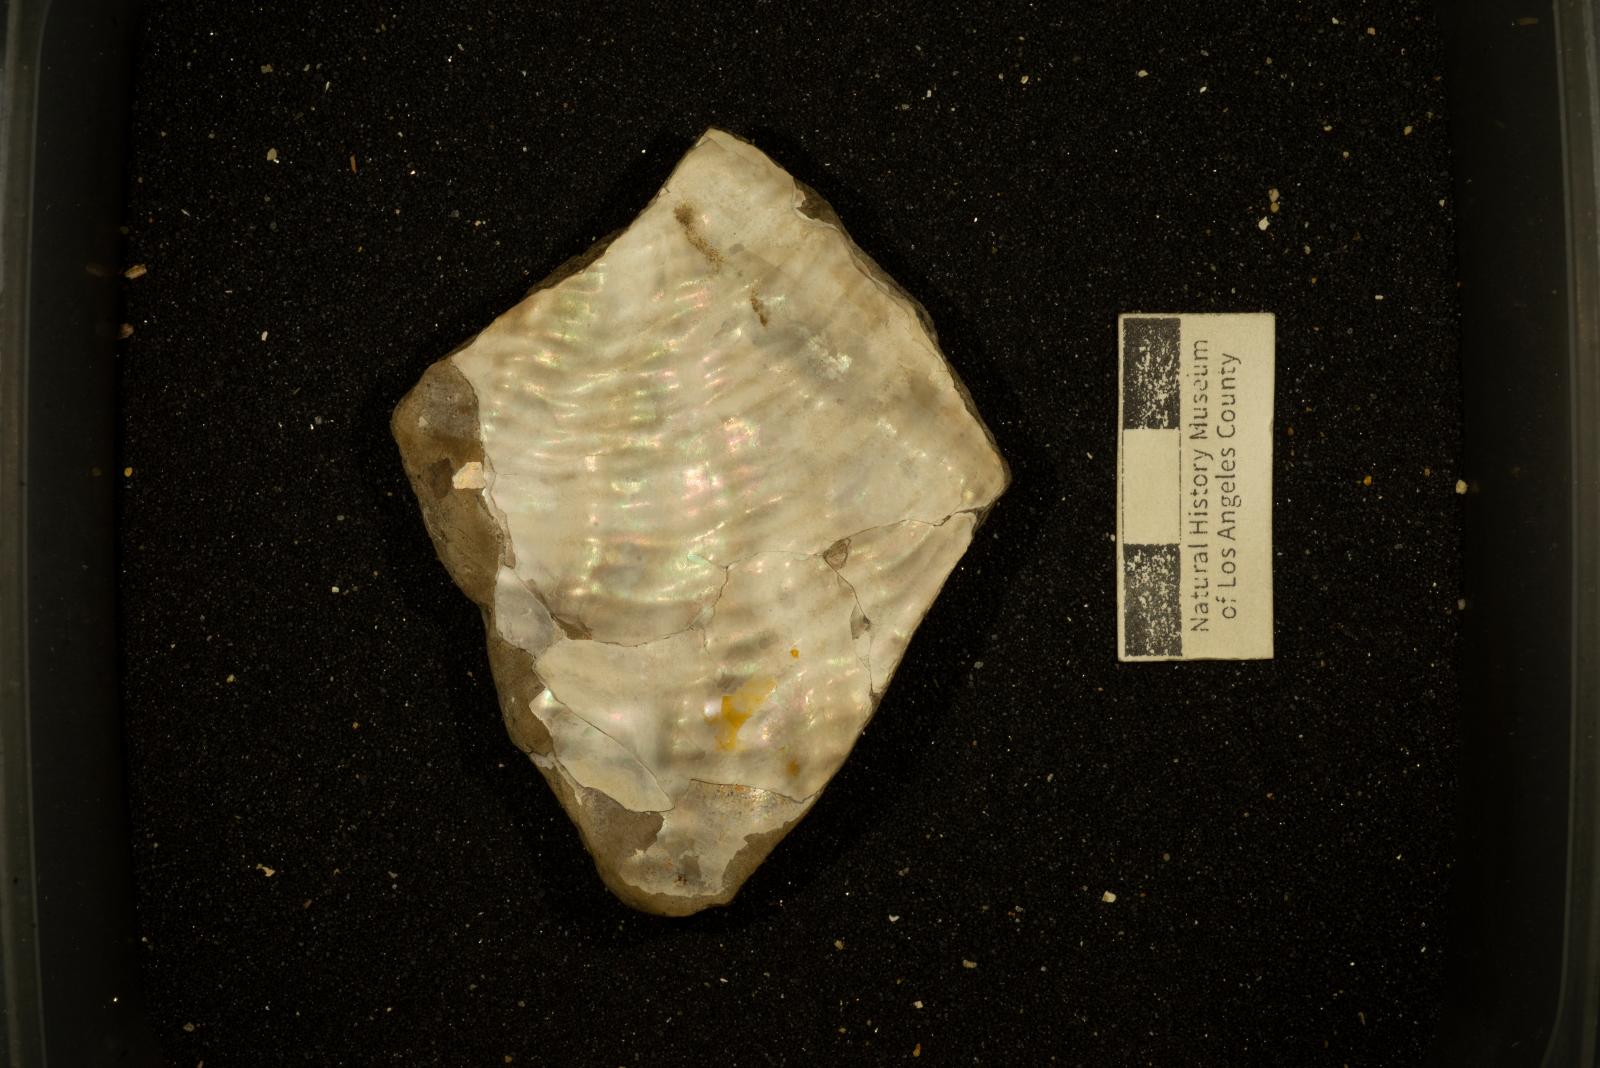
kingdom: Animalia
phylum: Mollusca
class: Bivalvia
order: Myalinida
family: Inoceramidae
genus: Cladoceramus
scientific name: Cladoceramus Inoceramus undulatoplicatus
